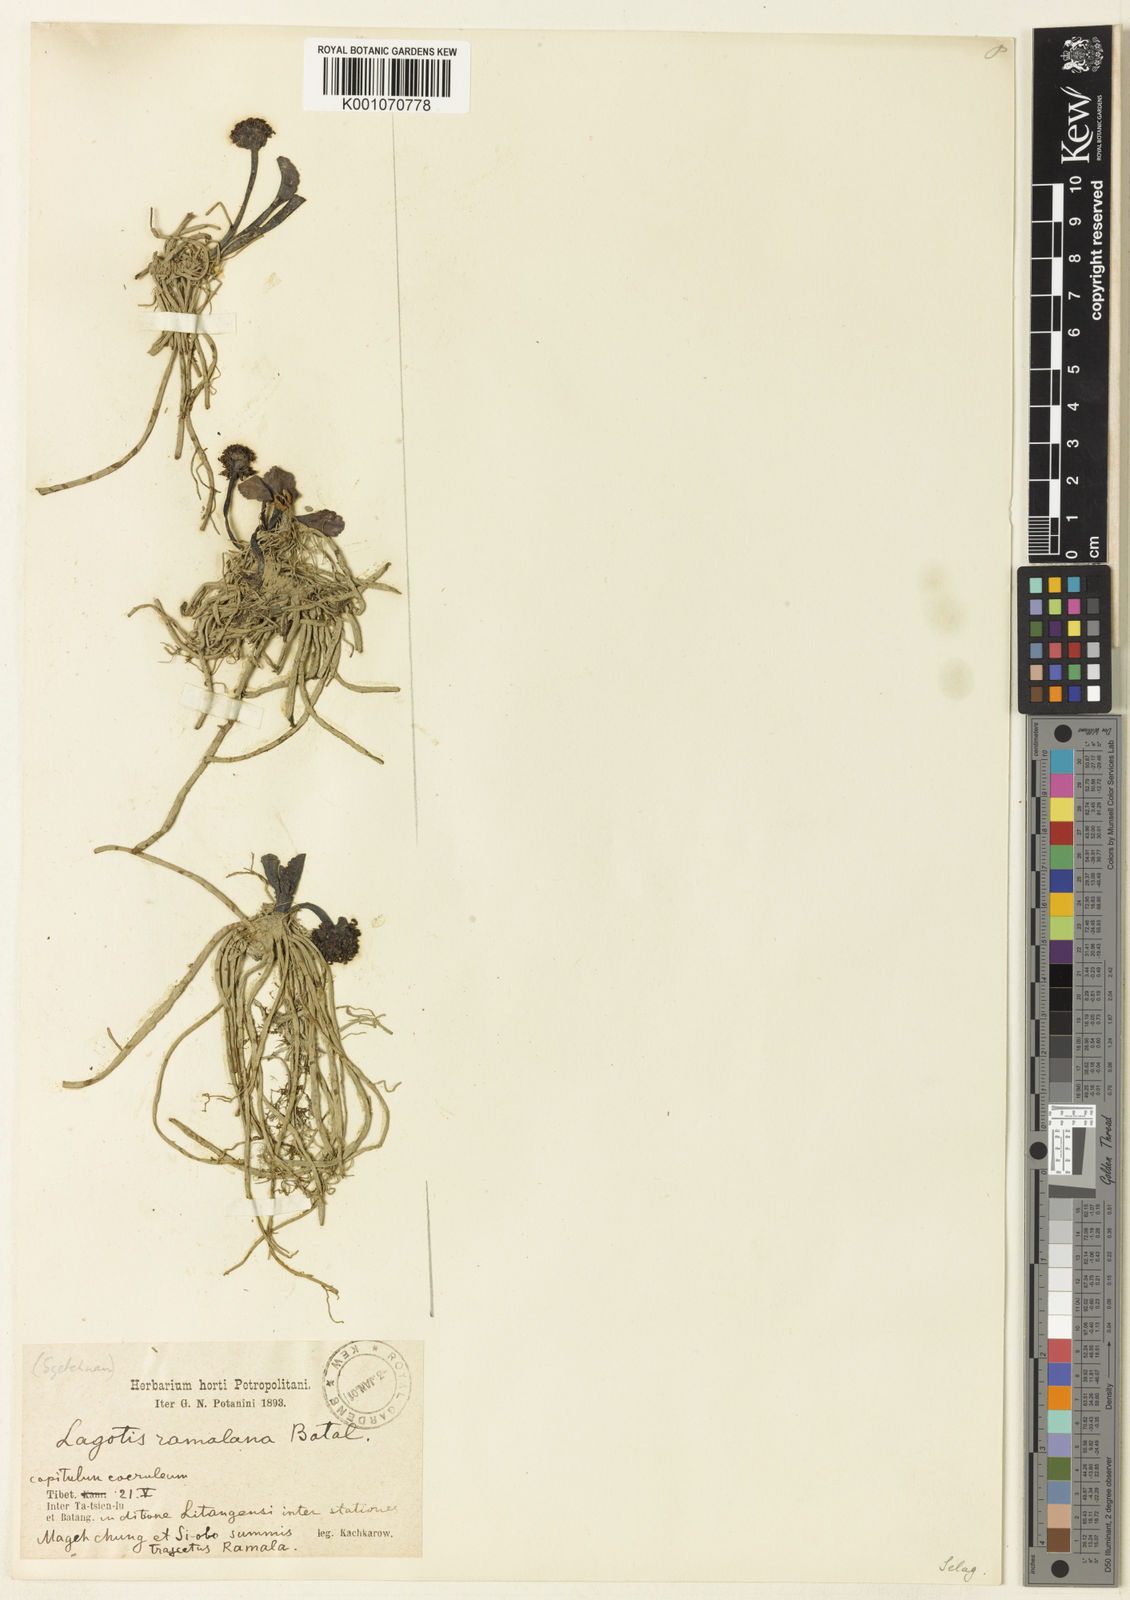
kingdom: Plantae
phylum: Tracheophyta
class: Magnoliopsida
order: Lamiales
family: Plantaginaceae
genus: Lagotis
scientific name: Lagotis ramalana
